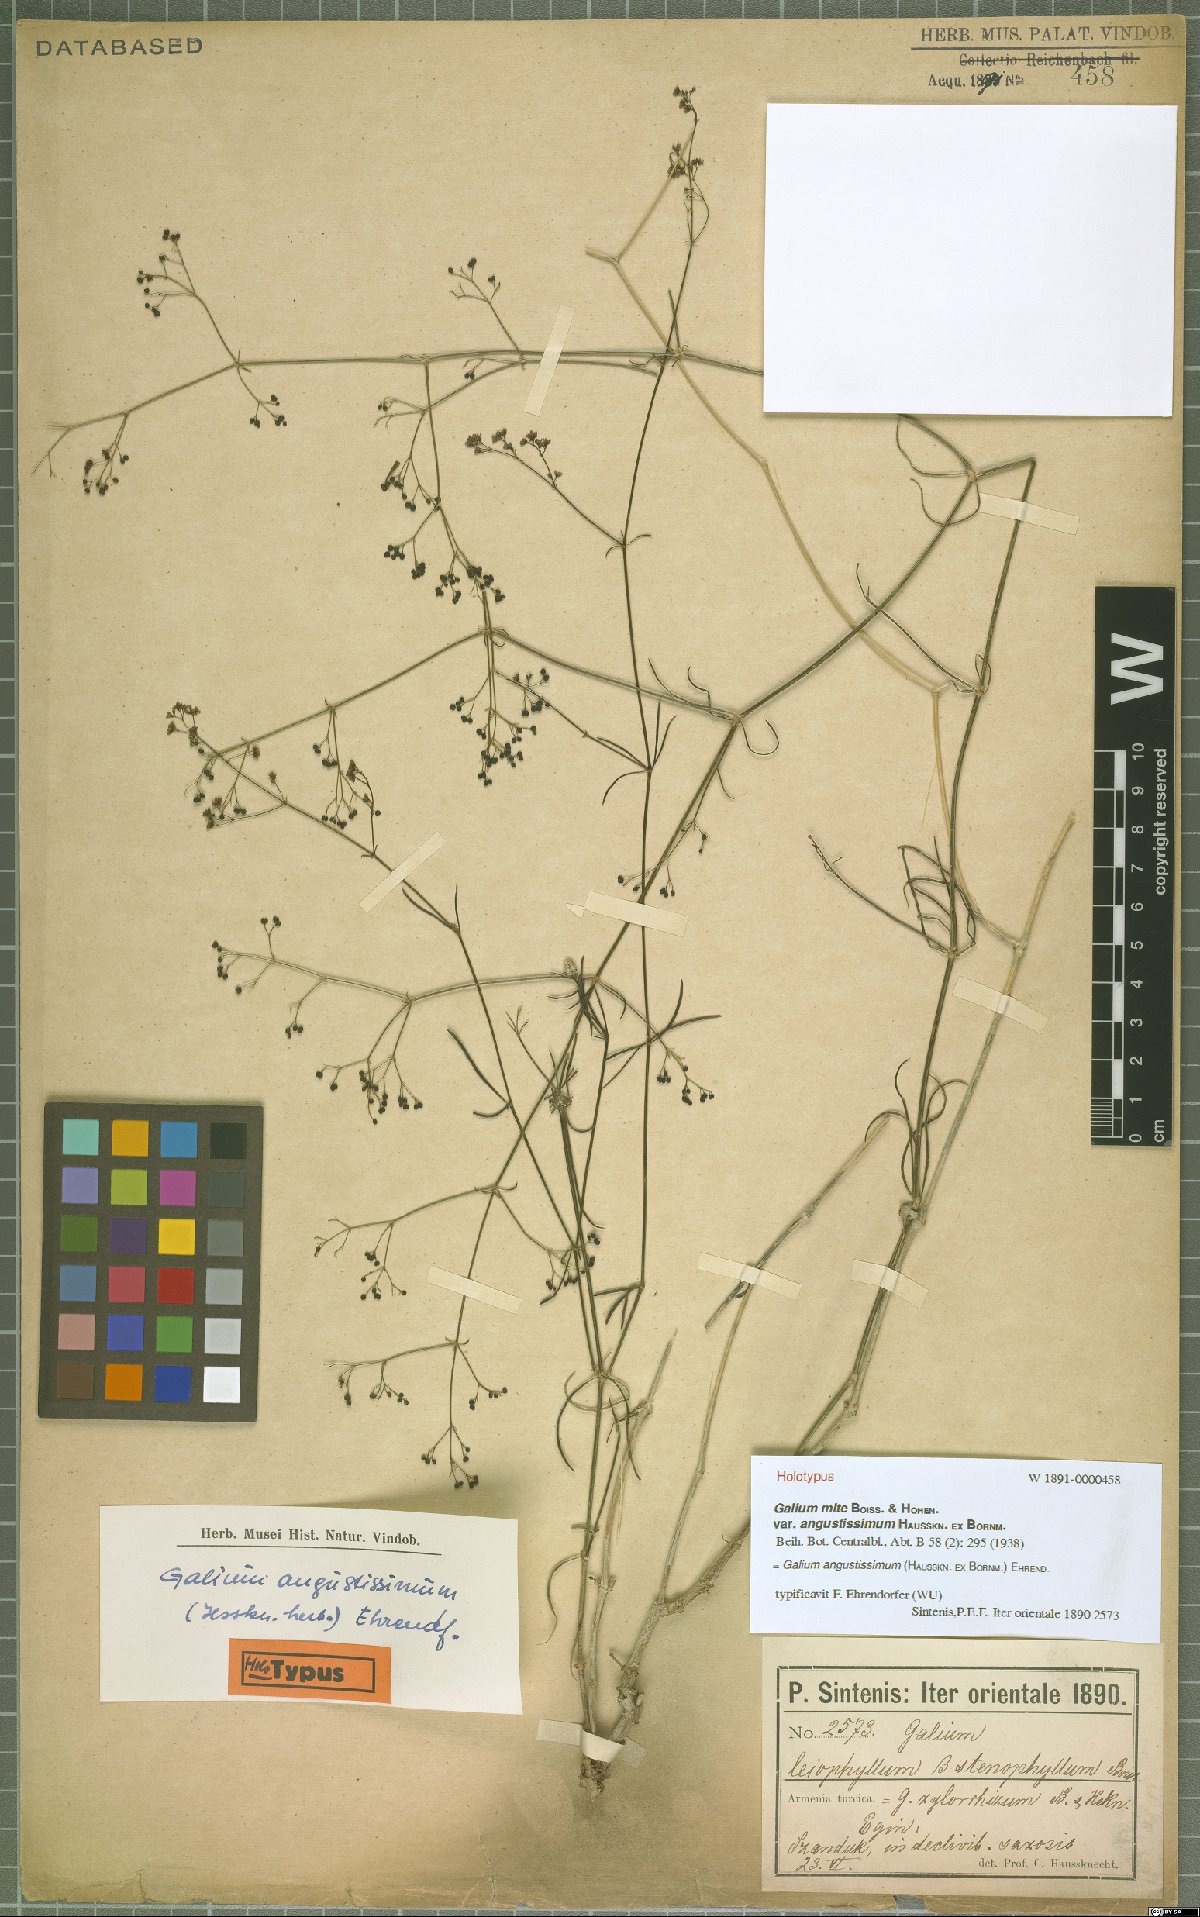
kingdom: Plantae
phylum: Tracheophyta
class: Magnoliopsida
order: Gentianales
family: Rubiaceae
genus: Galium
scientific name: Galium angustissimum
